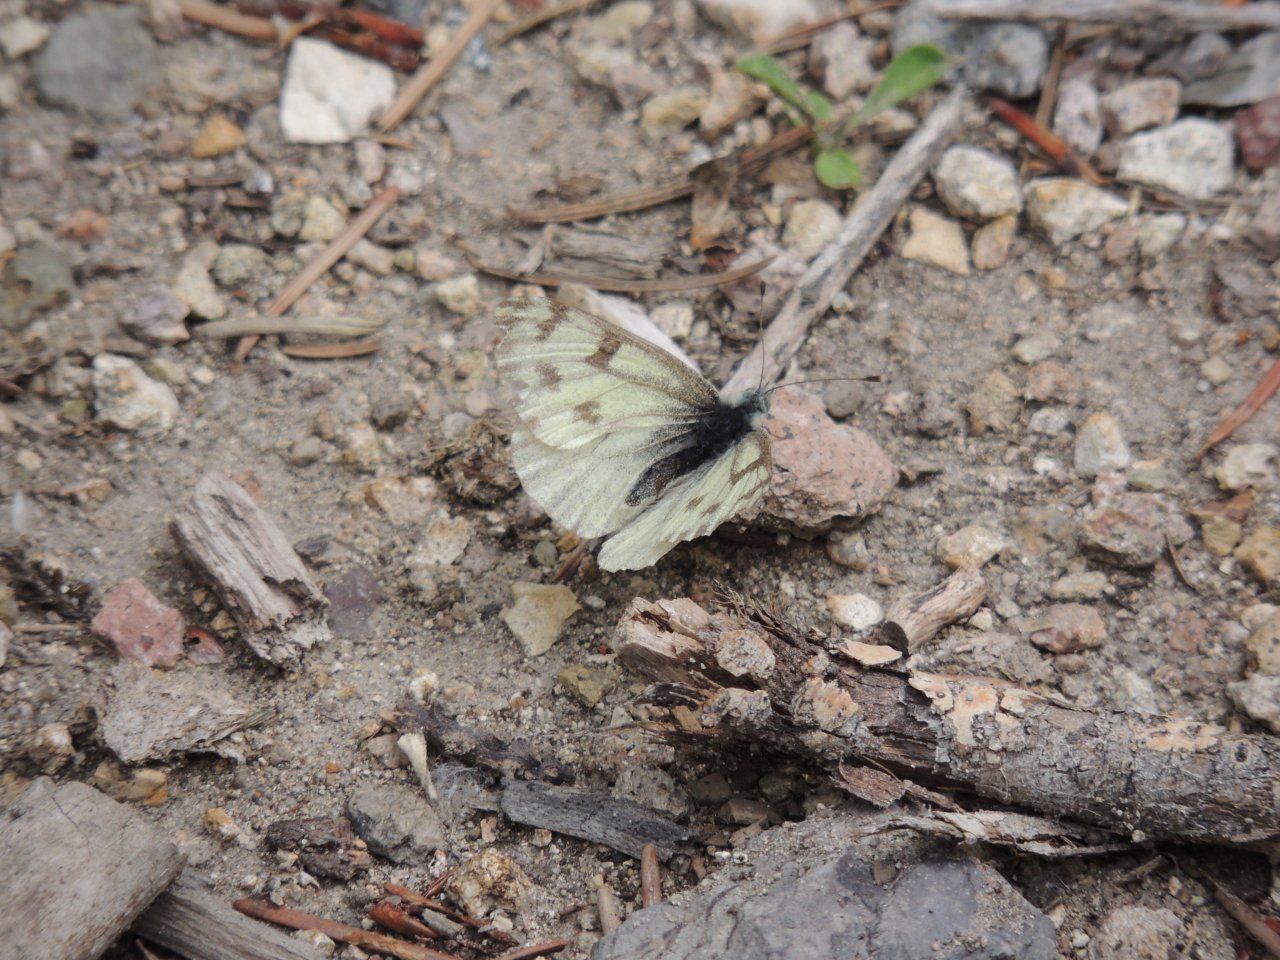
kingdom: Animalia
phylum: Arthropoda
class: Insecta
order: Lepidoptera
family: Pieridae
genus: Pontia
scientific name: Pontia occidentalis
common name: Western White
